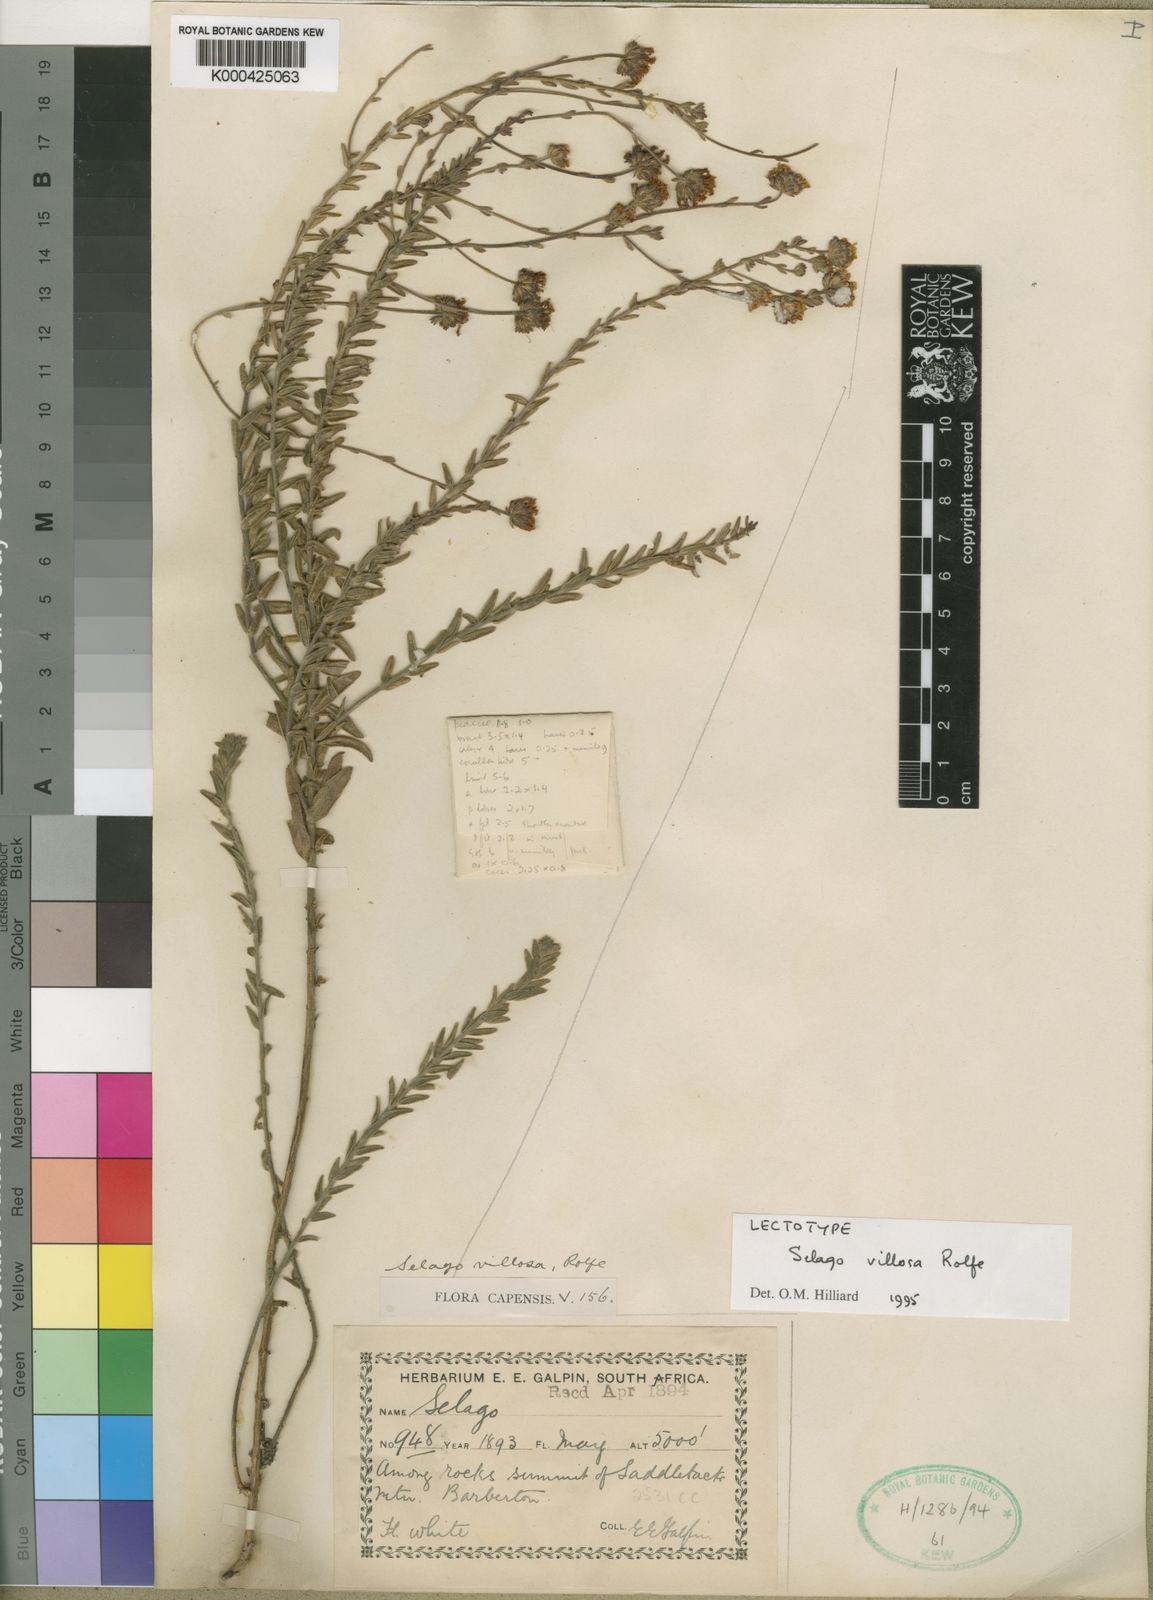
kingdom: Plantae
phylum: Tracheophyta
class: Magnoliopsida
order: Lamiales
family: Scrophulariaceae
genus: Selago
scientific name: Selago villosa
